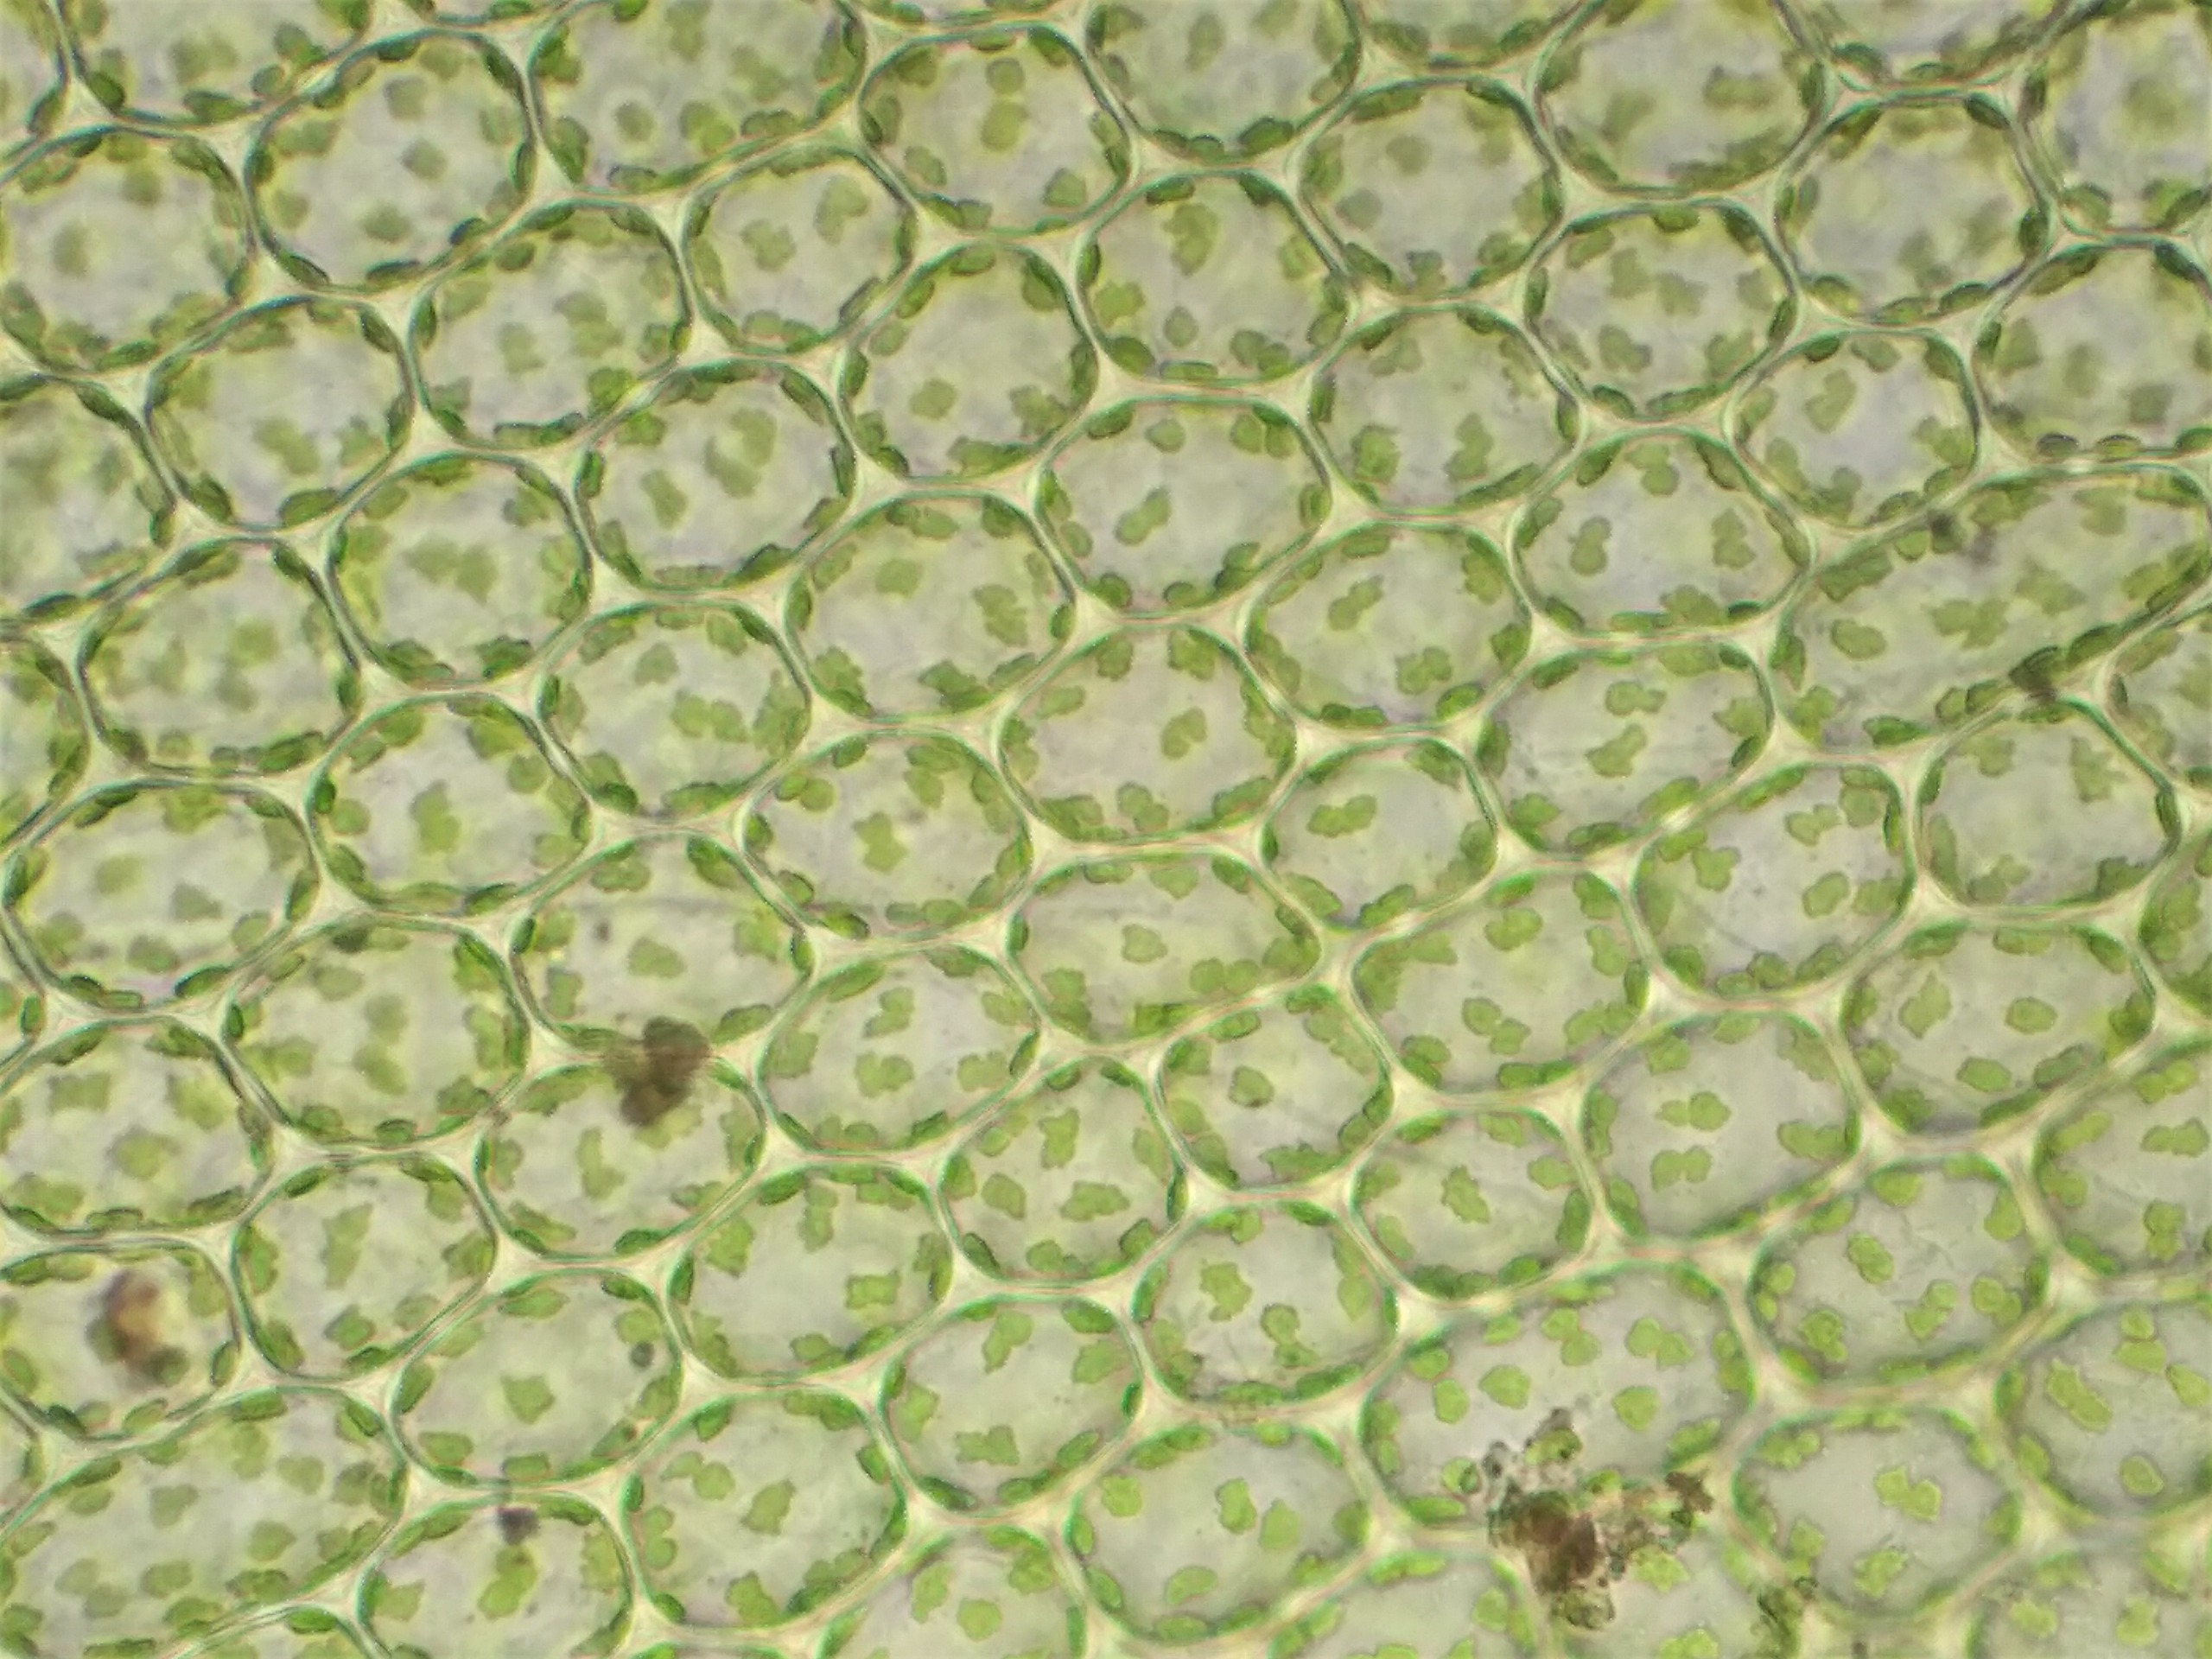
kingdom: Plantae
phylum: Bryophyta
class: Bryopsida
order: Bryales
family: Mniaceae
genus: Plagiomnium
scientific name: Plagiomnium rostratum
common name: Næb-krybstjerne
